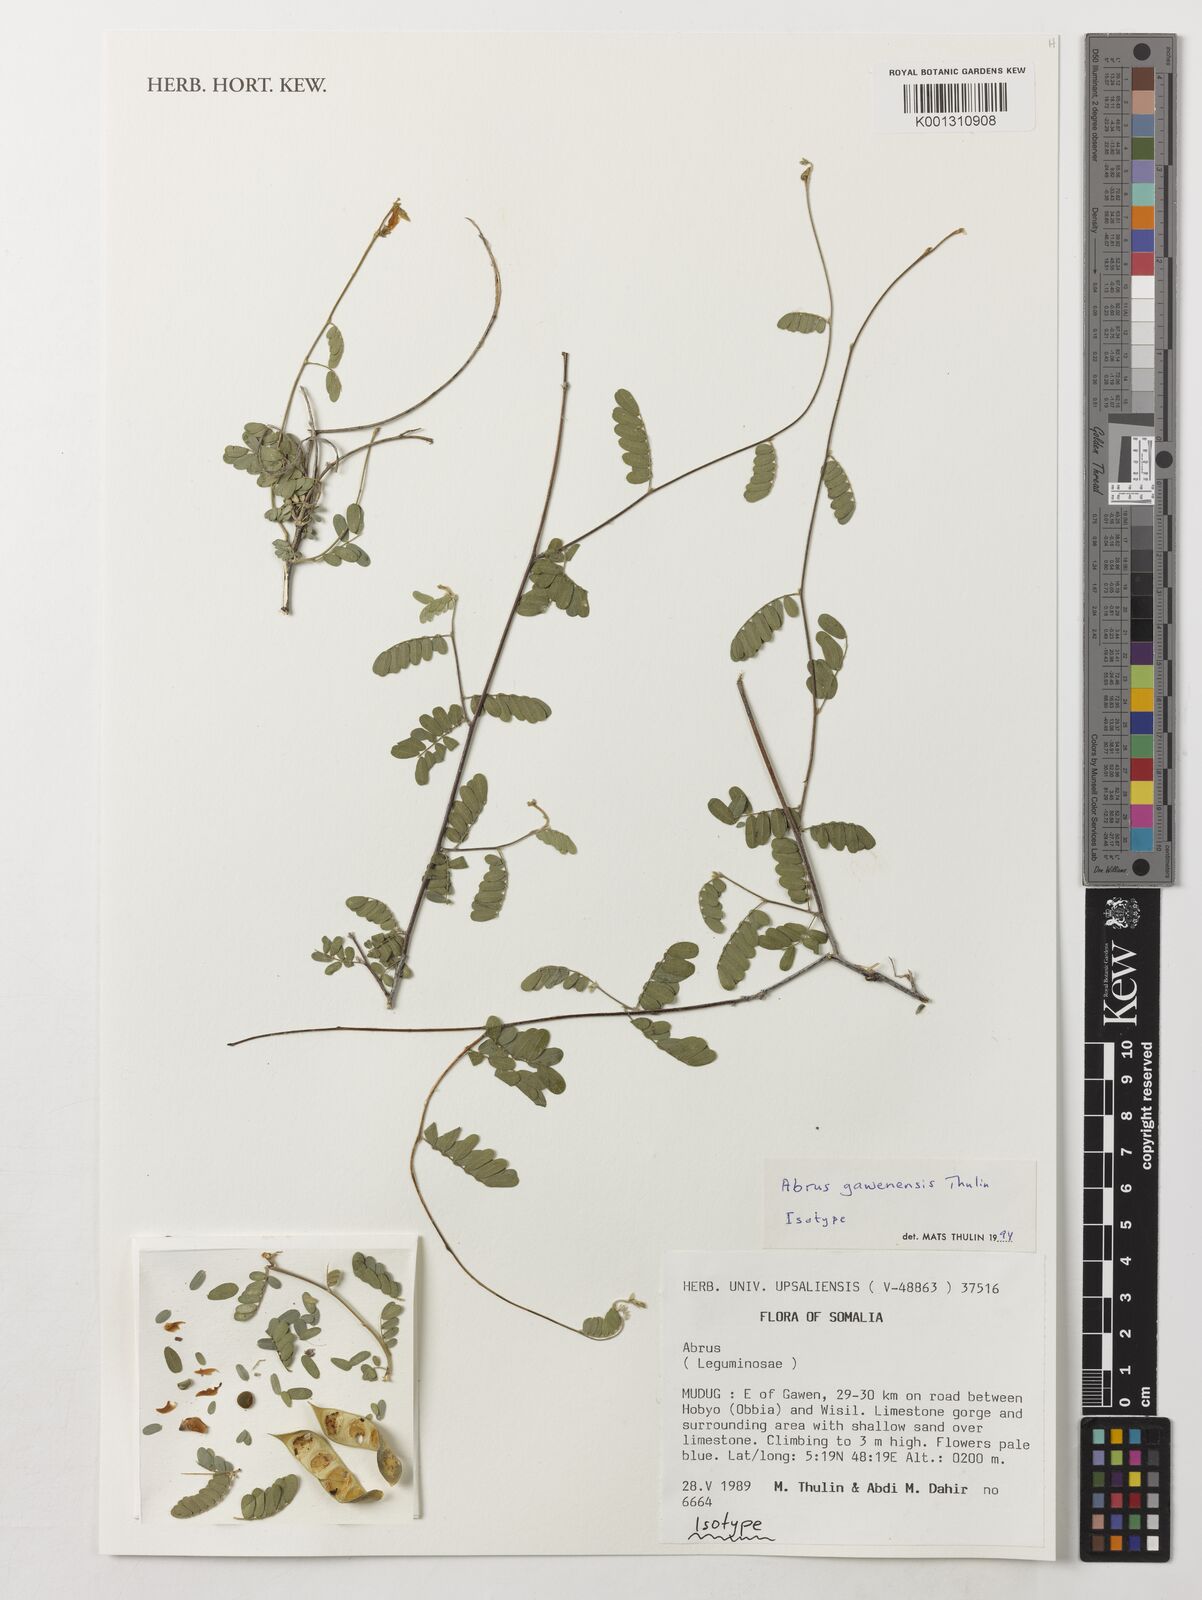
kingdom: Plantae
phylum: Tracheophyta
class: Magnoliopsida
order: Fabales
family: Fabaceae
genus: Abrus
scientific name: Abrus gawenensis
